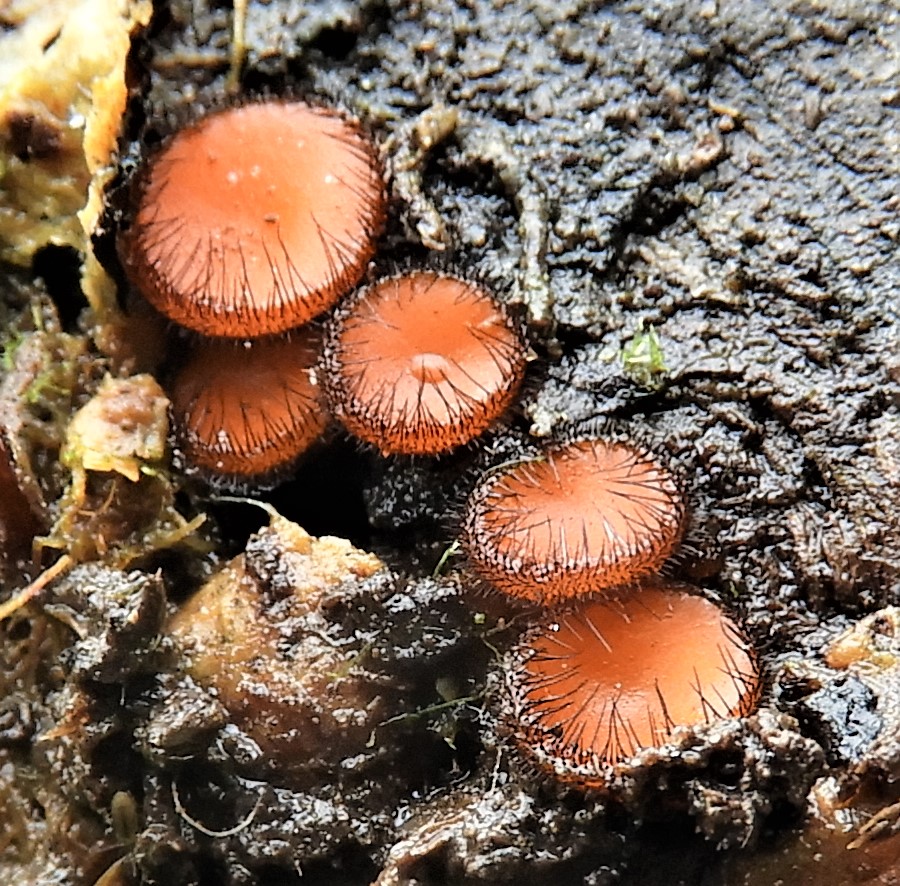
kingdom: Fungi
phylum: Ascomycota
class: Pezizomycetes
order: Pezizales
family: Pyronemataceae
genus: Scutellinia
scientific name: Scutellinia scutellata
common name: frynset skjoldbæger
